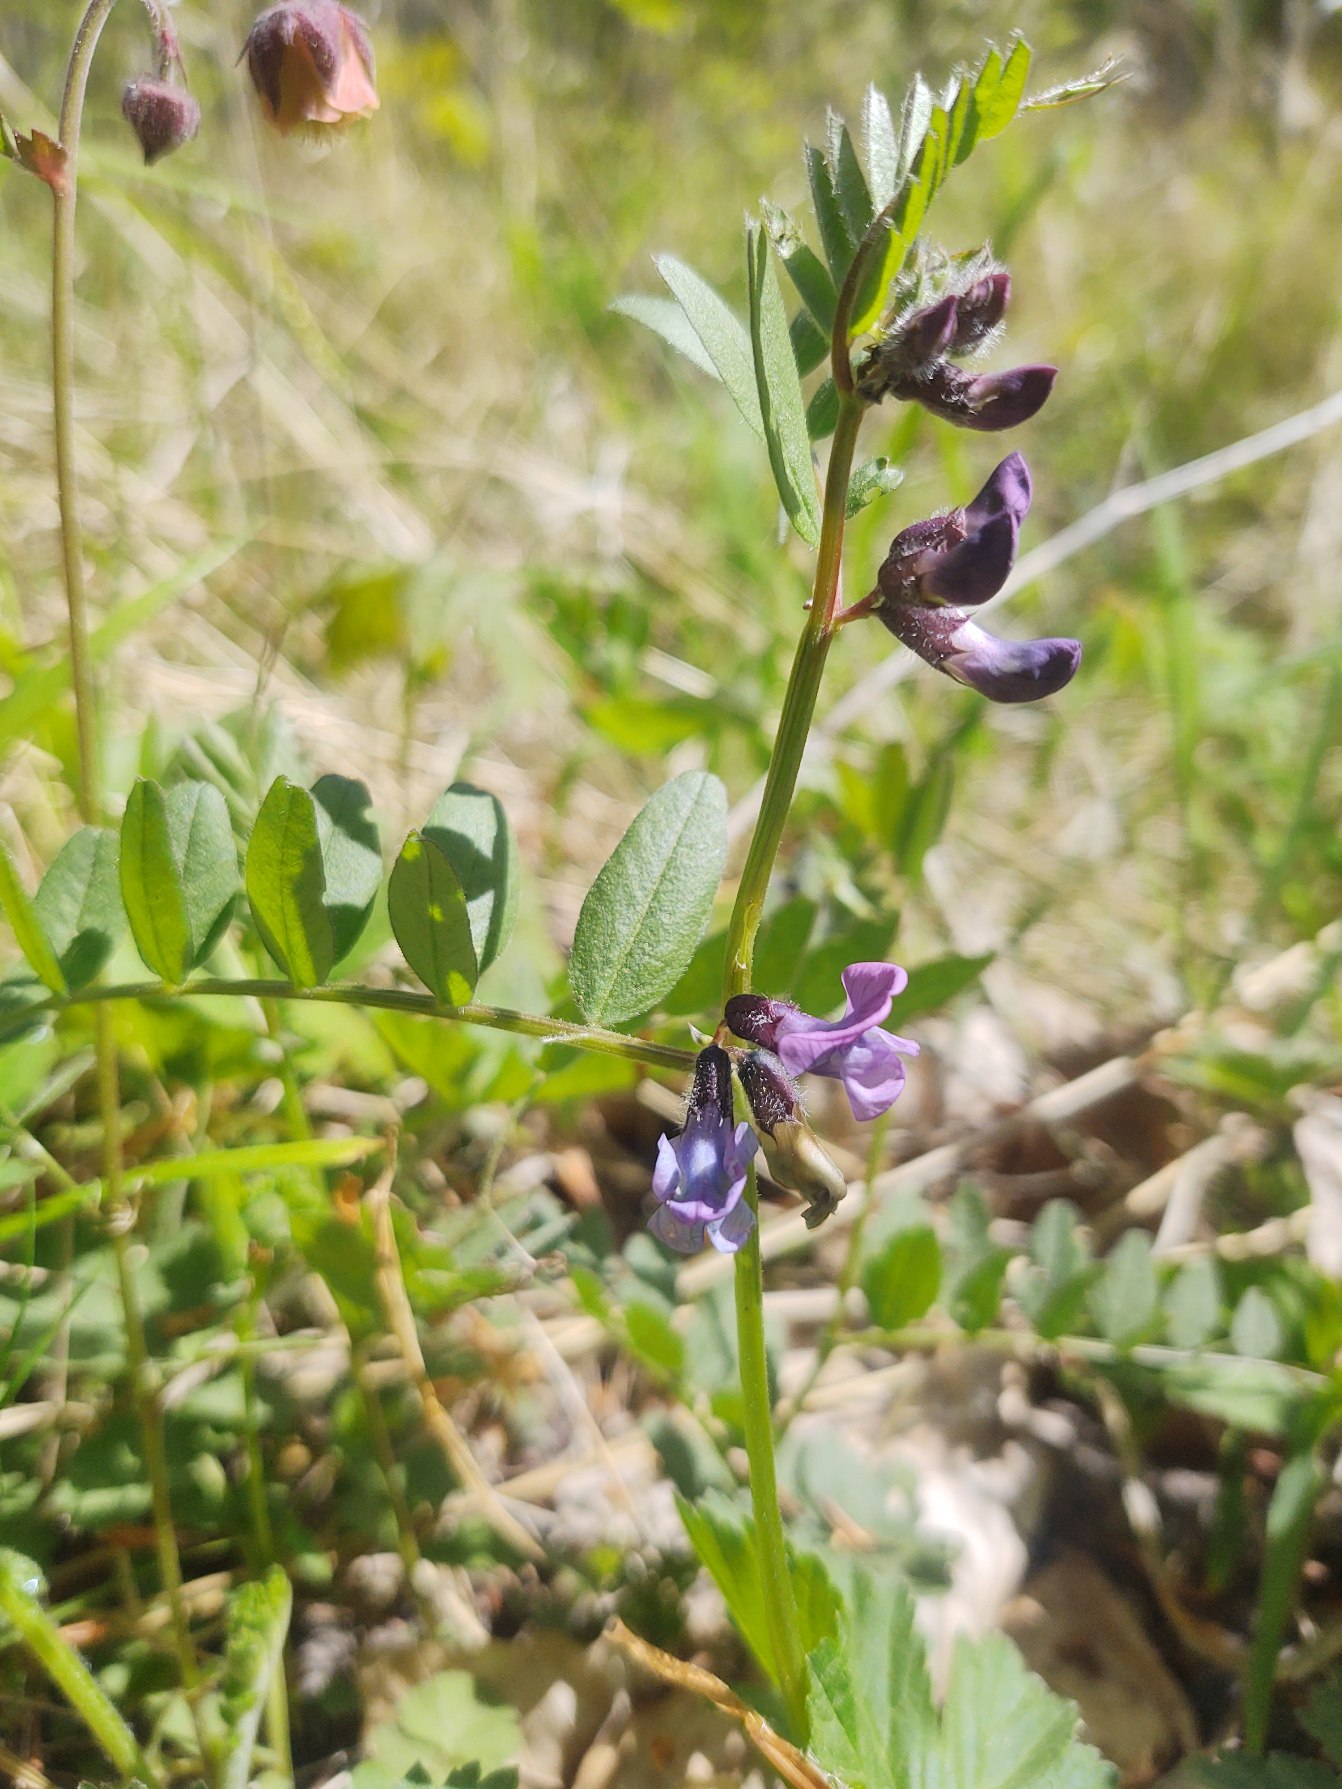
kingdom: Plantae
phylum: Tracheophyta
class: Magnoliopsida
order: Fabales
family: Fabaceae
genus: Vicia
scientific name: Vicia sepium
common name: Gærde-vikke
